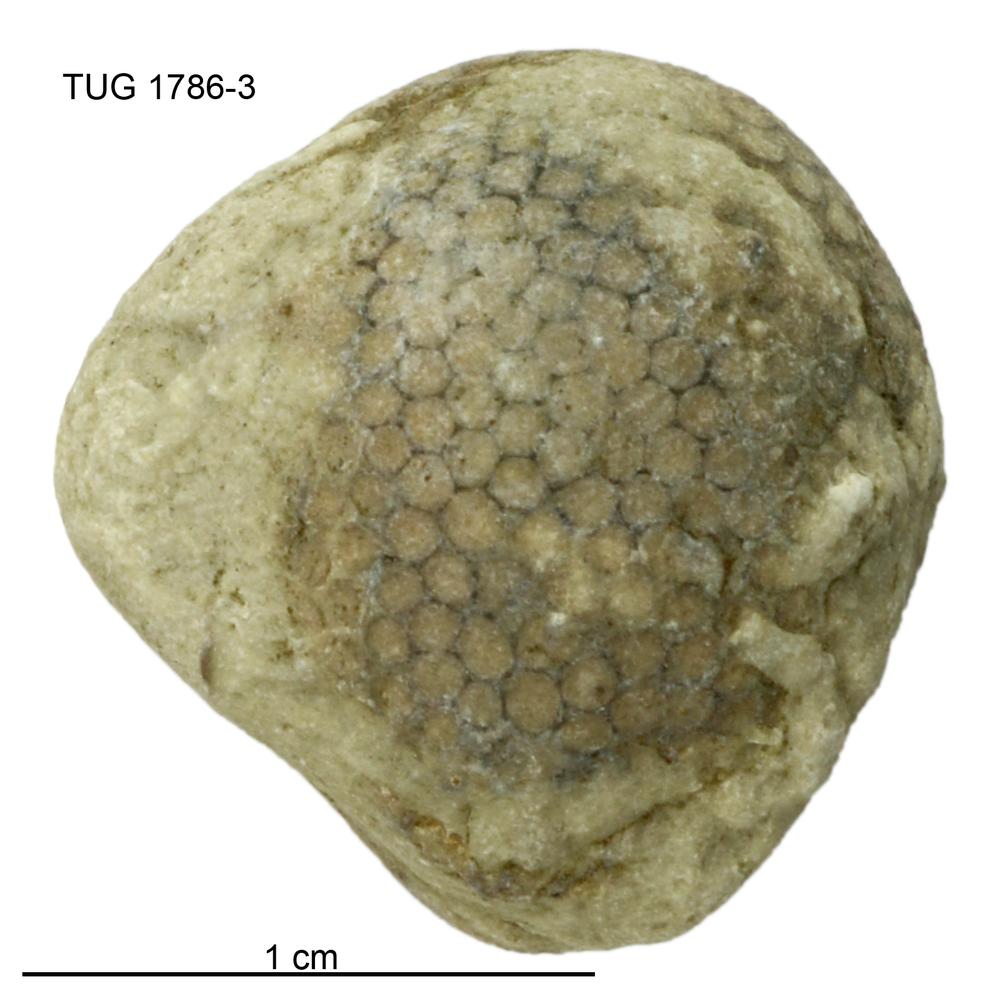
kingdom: Plantae
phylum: Chlorophyta
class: Ulvophyceae
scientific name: Ulvophyceae
